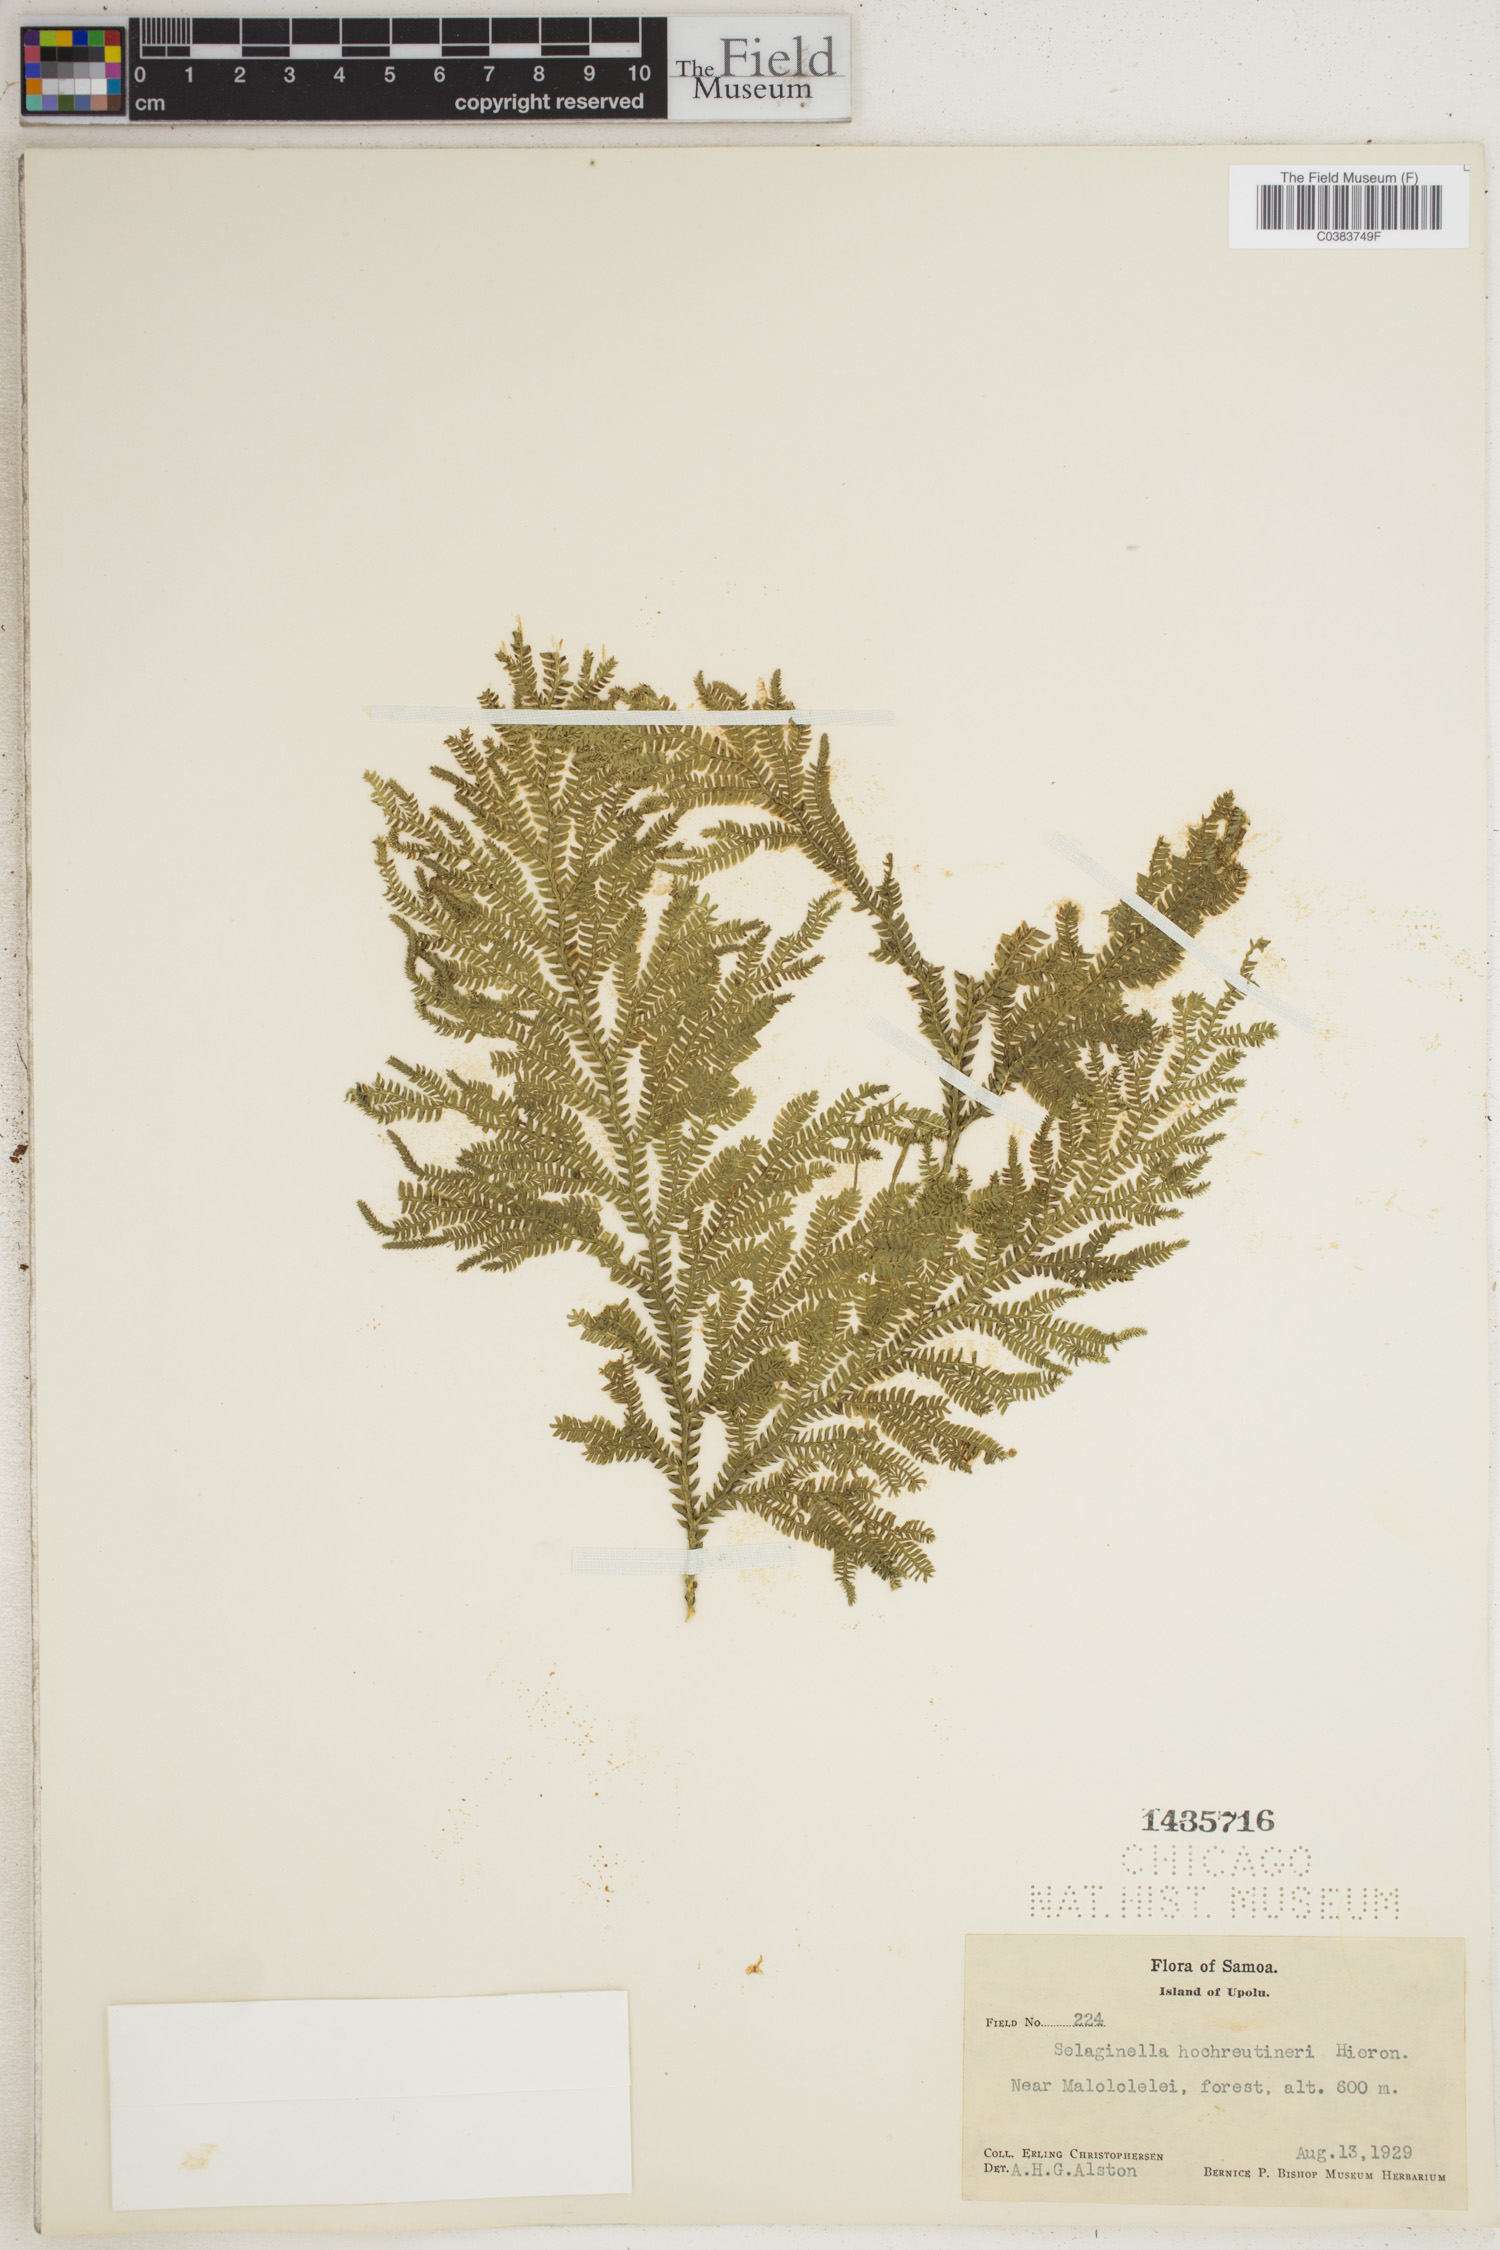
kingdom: Plantae
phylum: Tracheophyta
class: Lycopodiopsida
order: Selaginellales
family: Selaginellaceae
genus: Selaginella
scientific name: Selaginella hochreutineri
